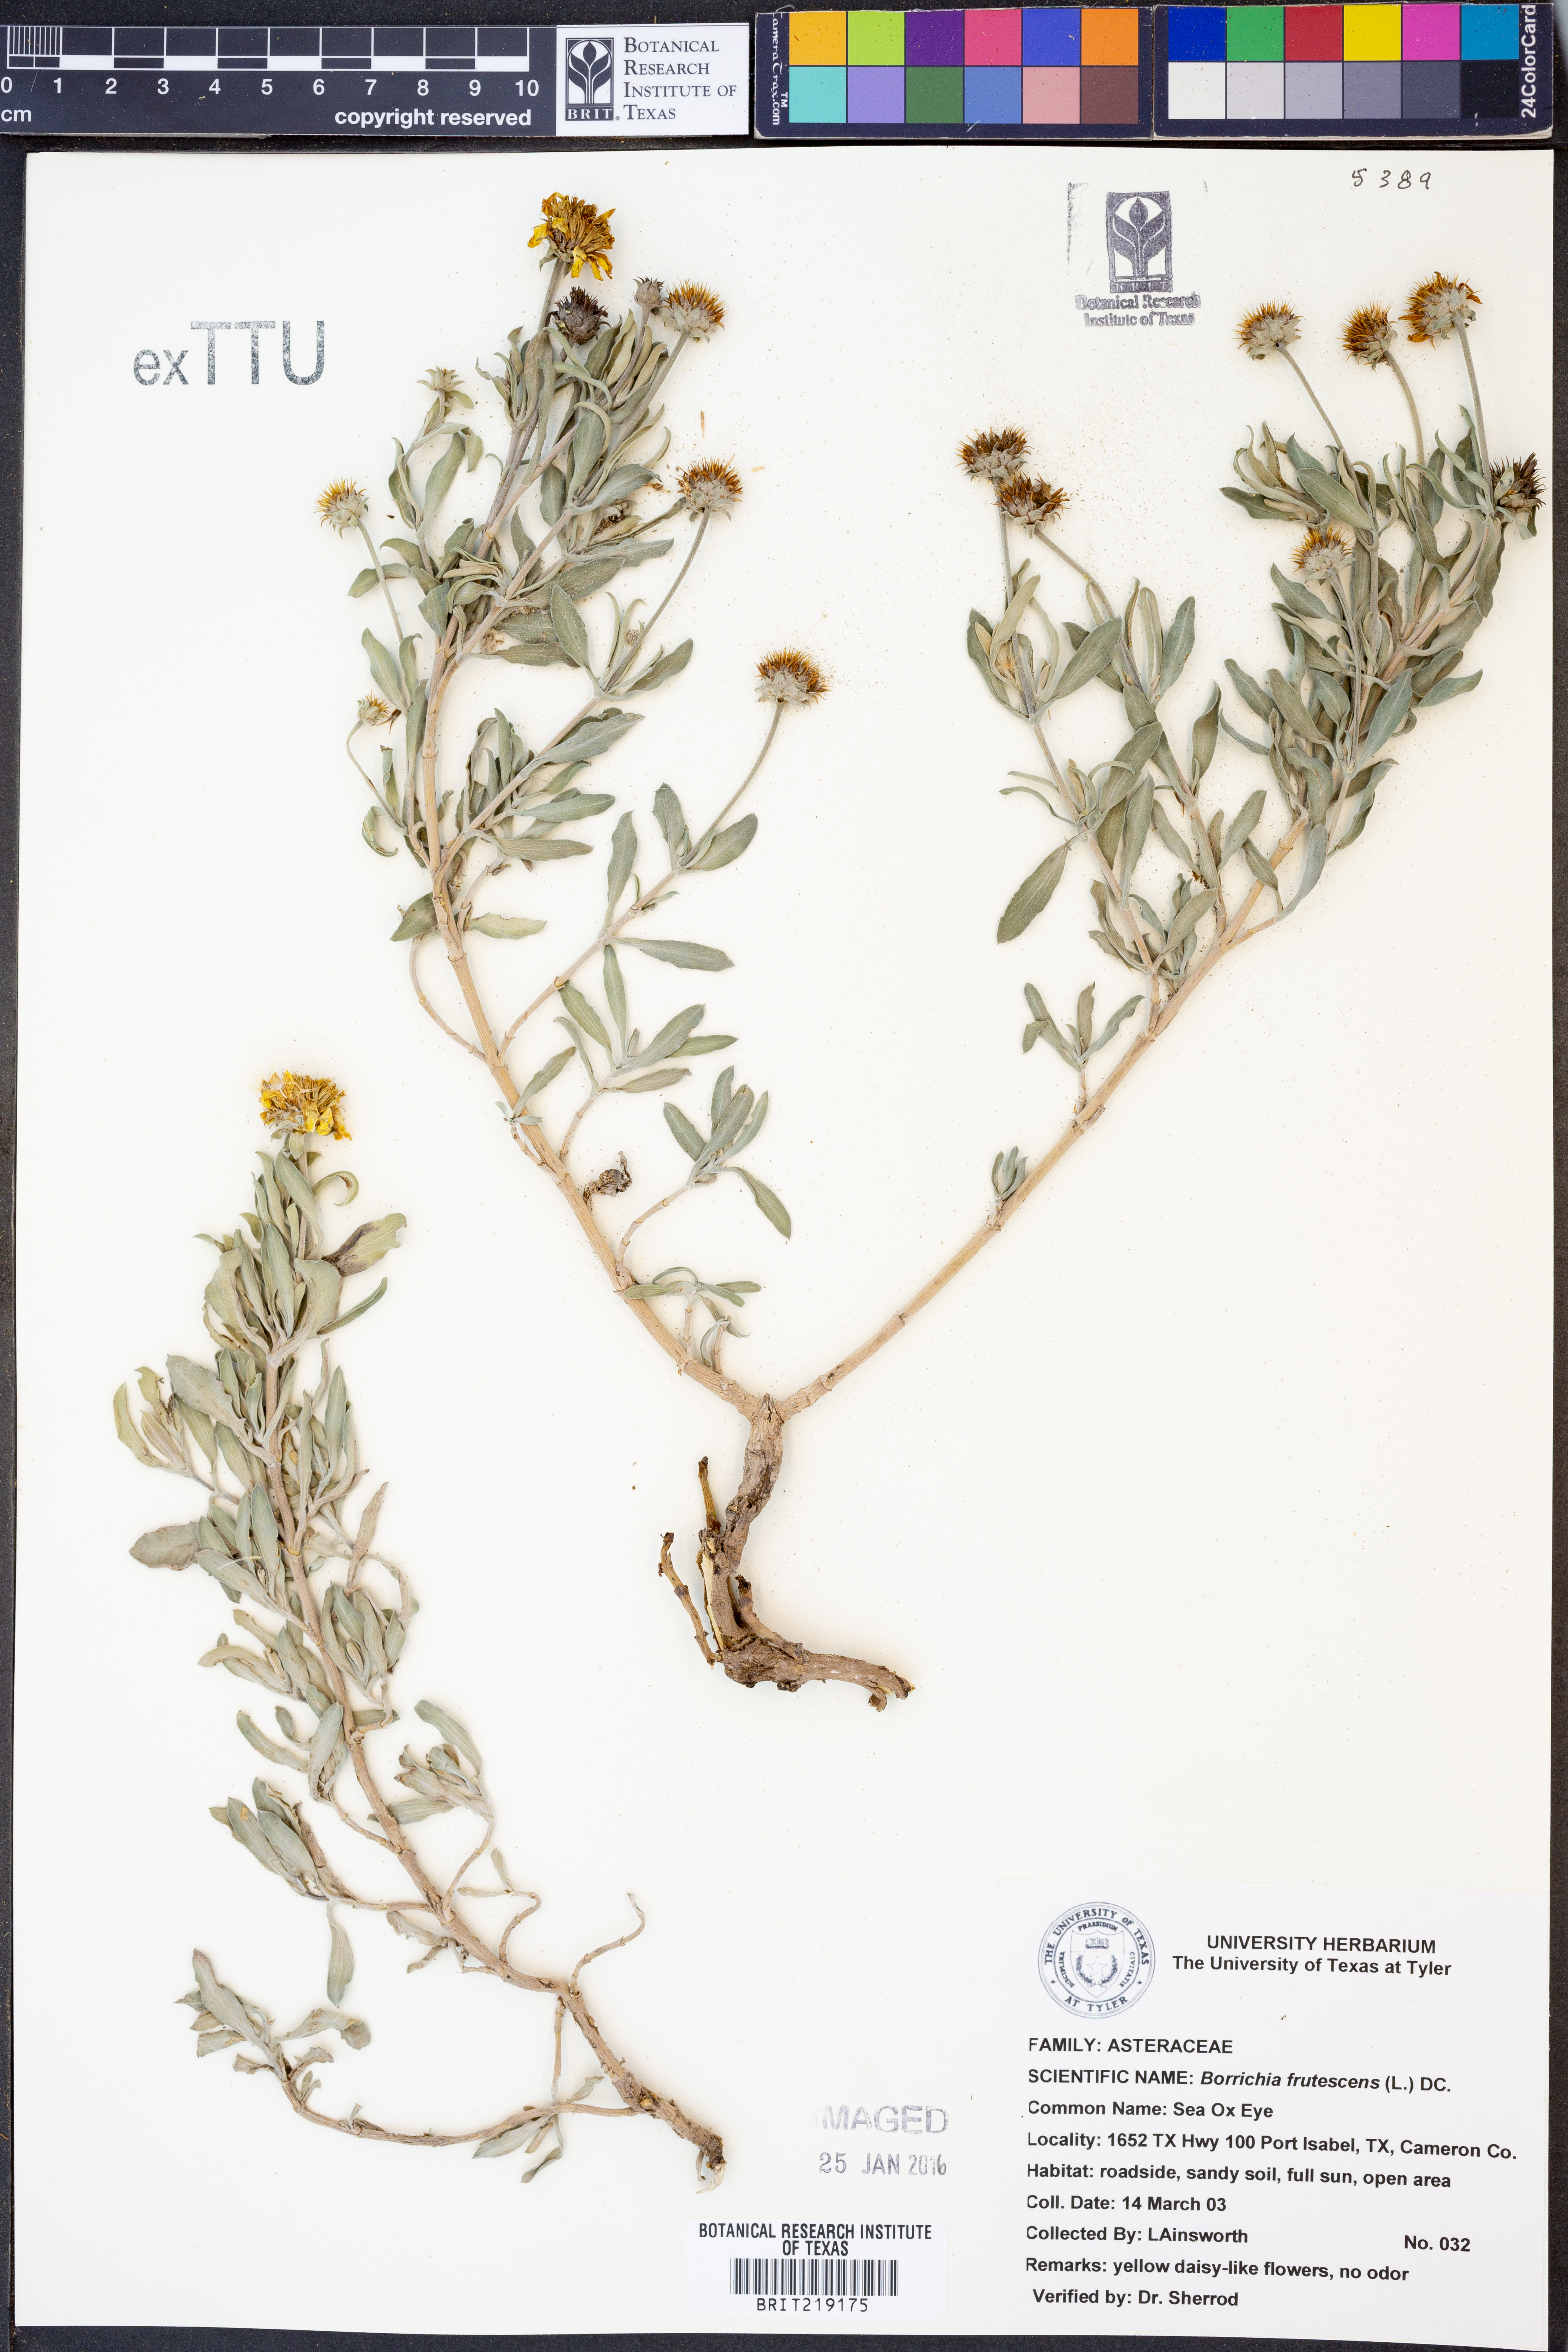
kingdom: Plantae
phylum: Tracheophyta
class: Magnoliopsida
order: Asterales
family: Asteraceae
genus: Borrichia
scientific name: Borrichia frutescens
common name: Sea oxeye
